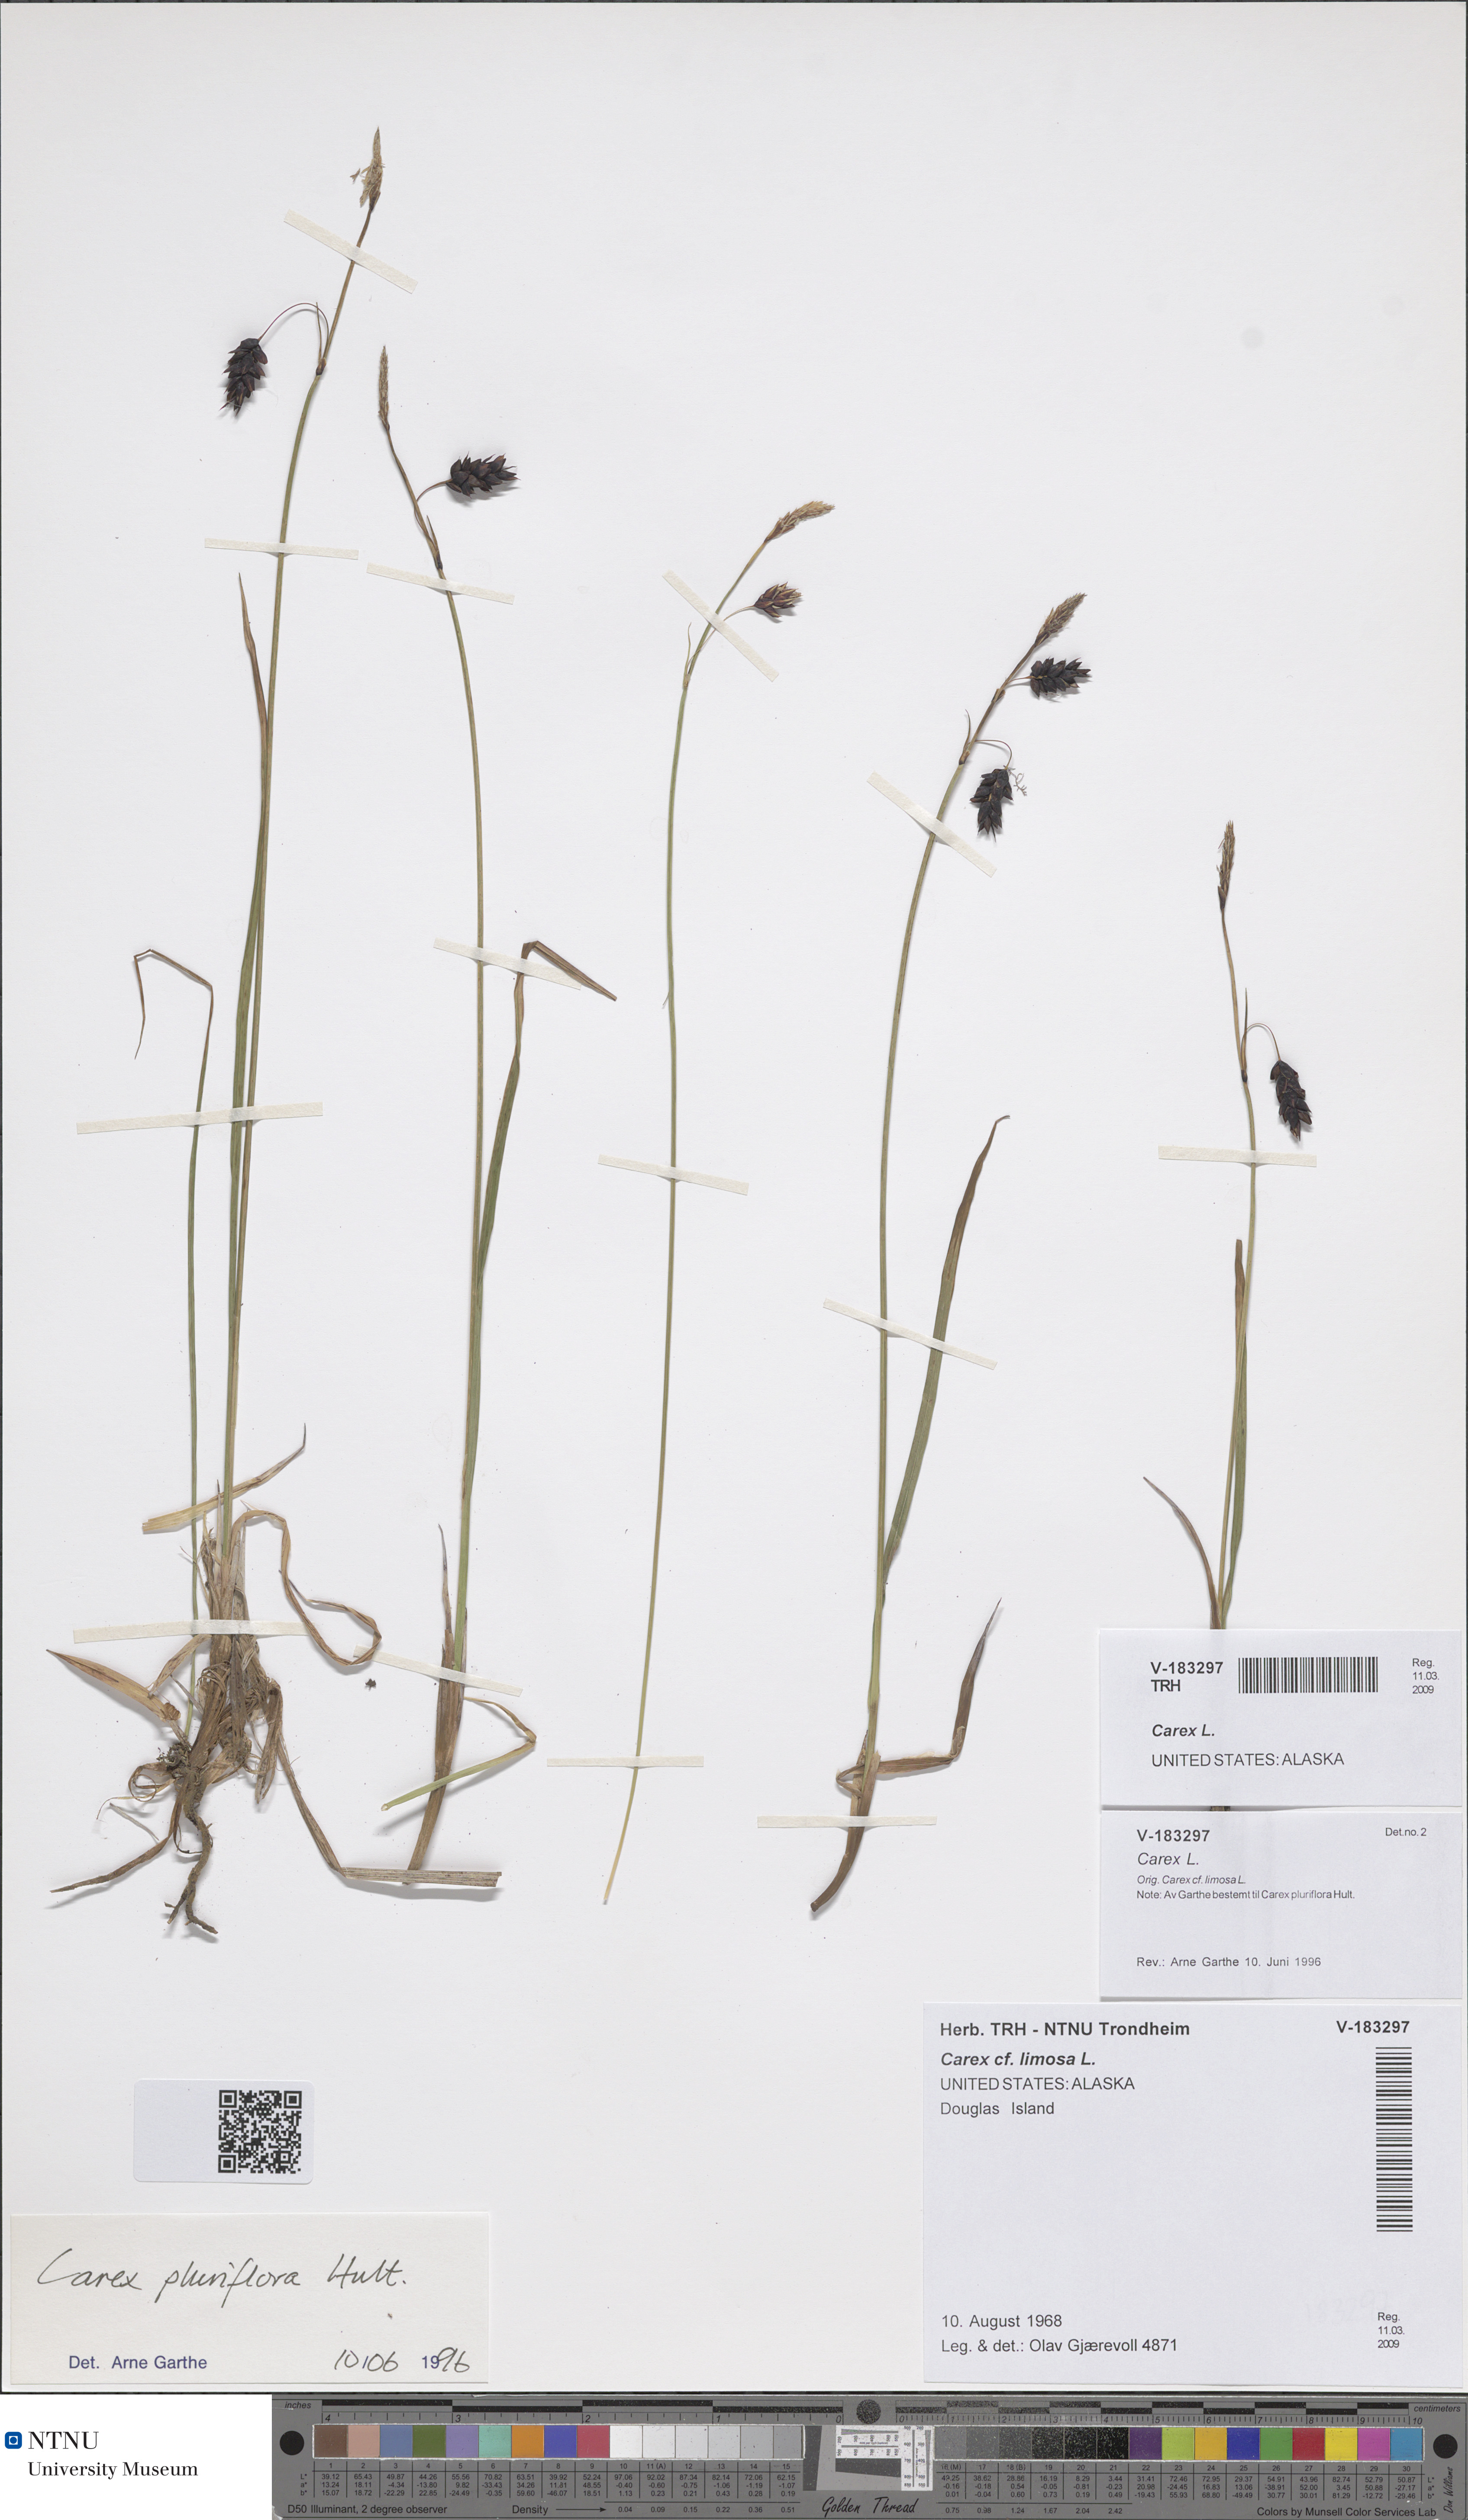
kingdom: Plantae
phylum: Tracheophyta
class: Liliopsida
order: Poales
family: Cyperaceae
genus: Carex
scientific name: Carex
